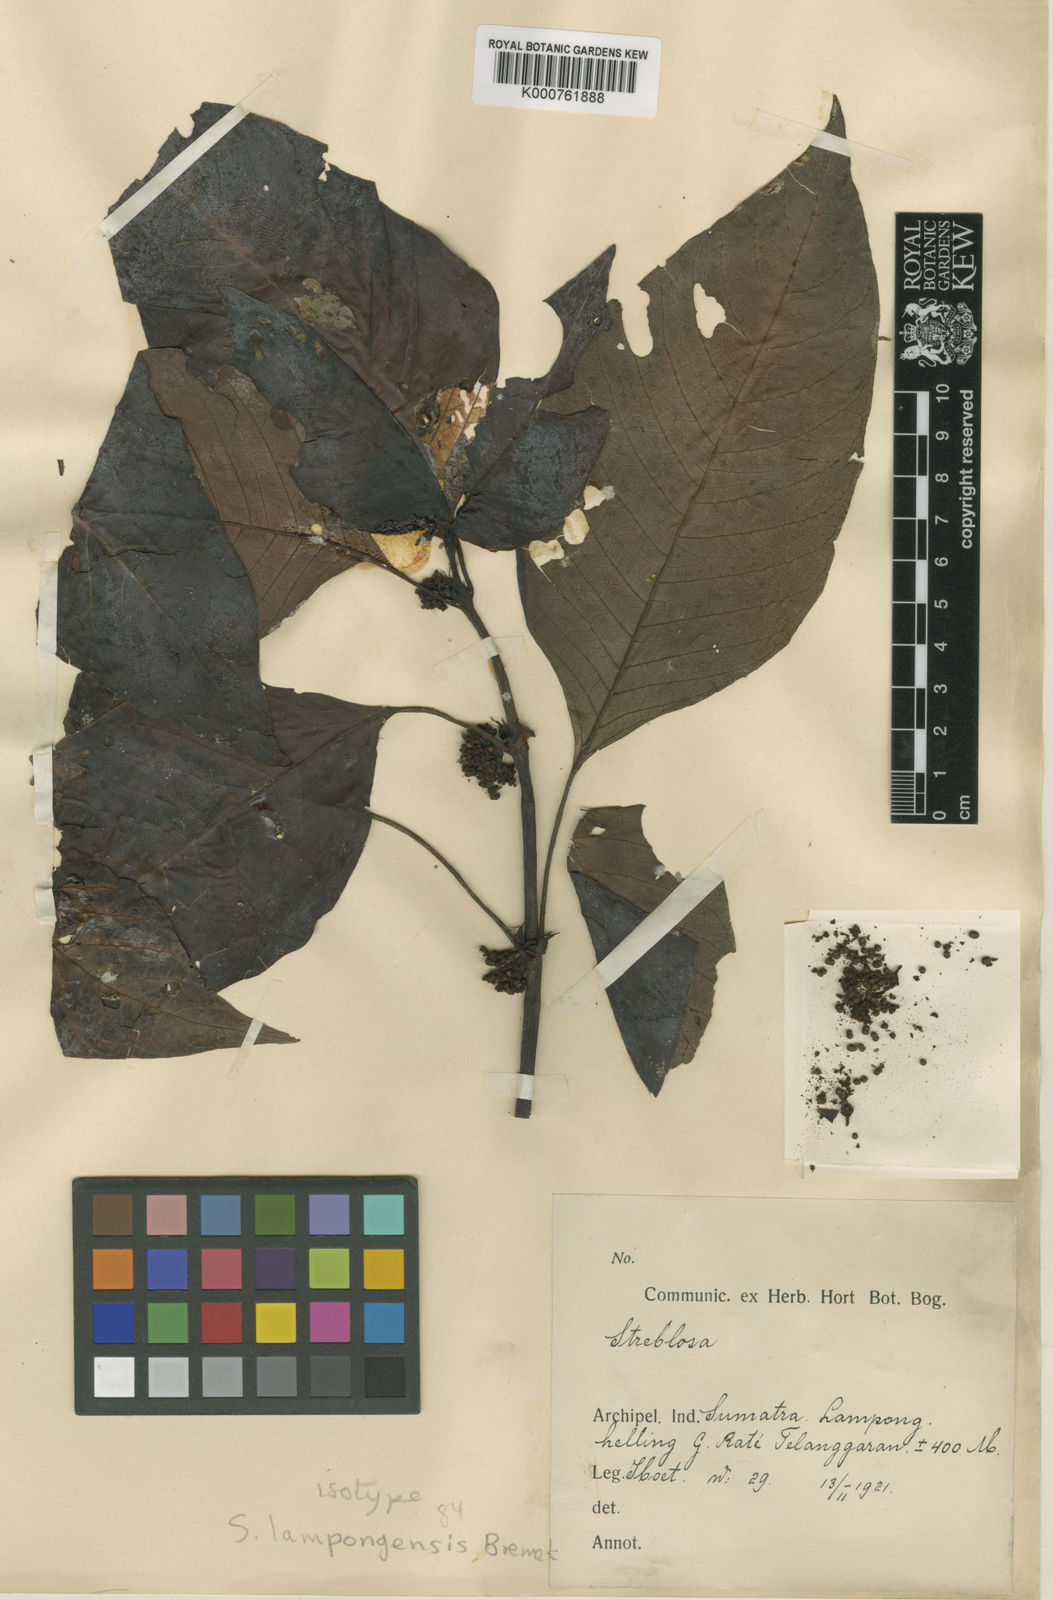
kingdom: Plantae
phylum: Tracheophyta
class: Magnoliopsida
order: Gentianales
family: Rubiaceae
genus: Streblosa
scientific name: Streblosa lampongensis
